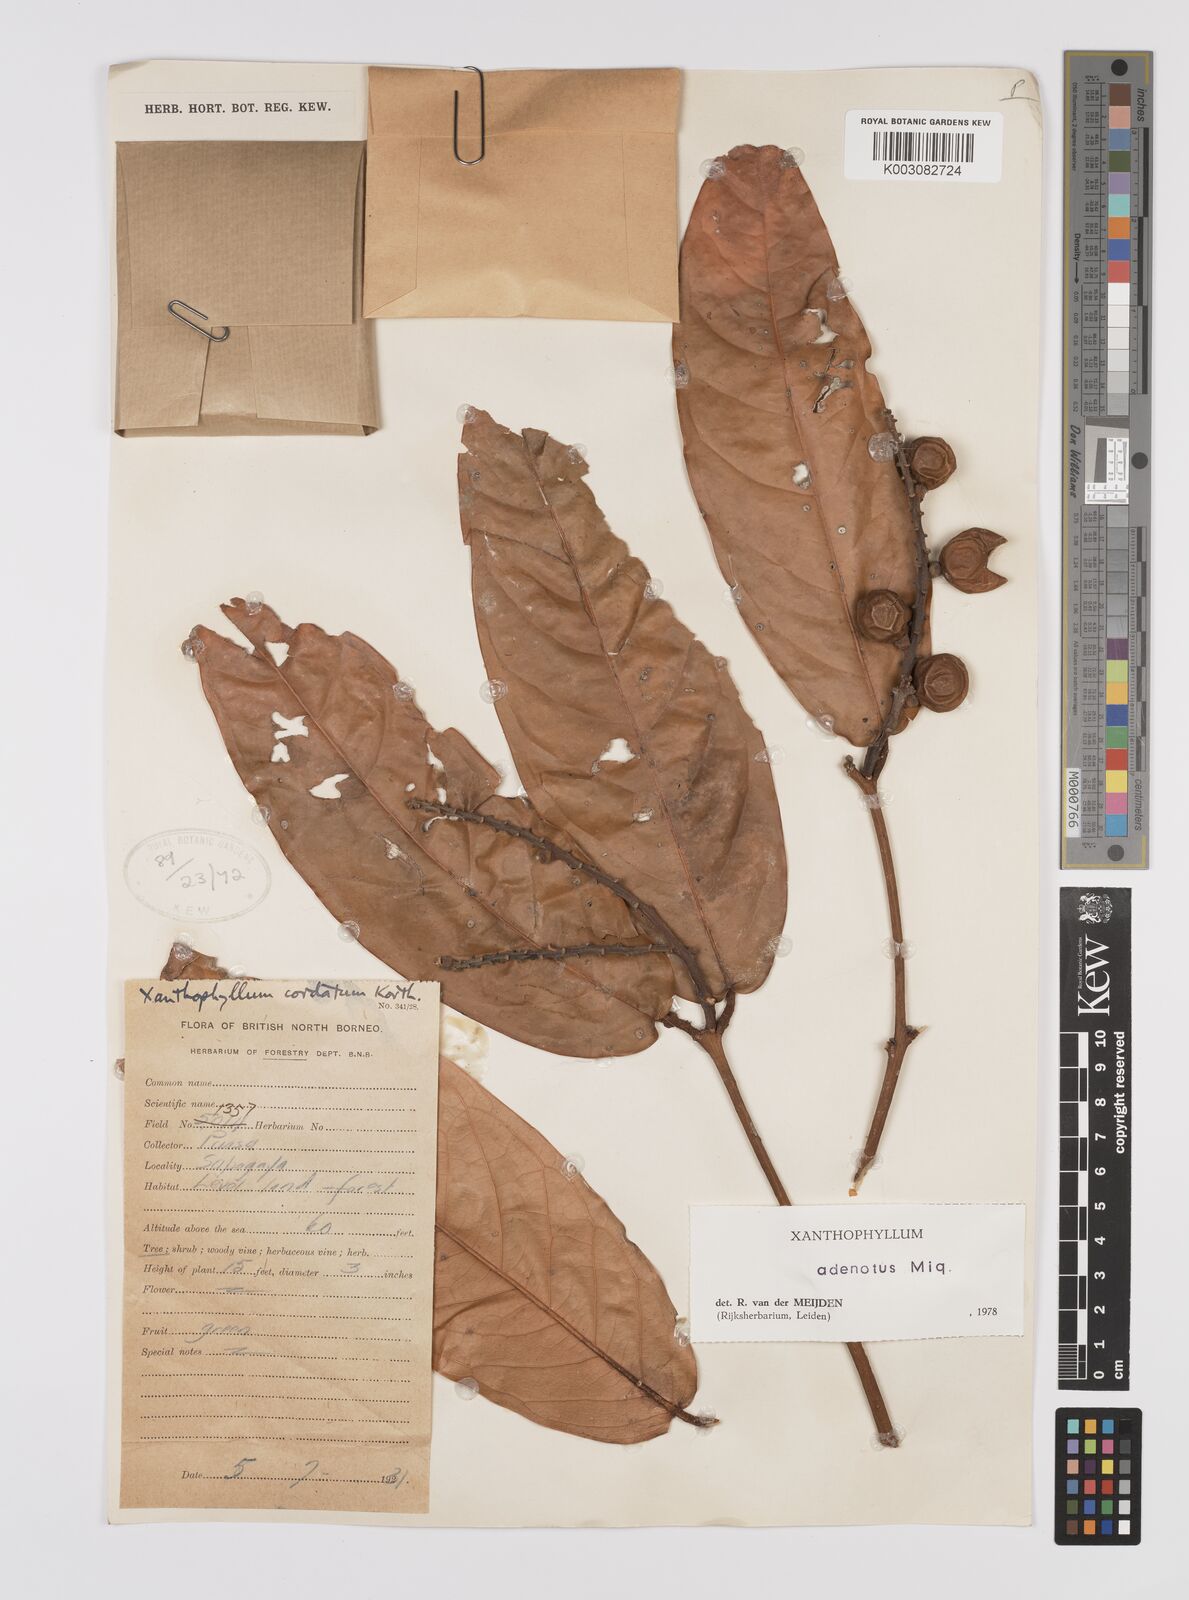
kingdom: Plantae
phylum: Tracheophyta
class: Magnoliopsida
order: Fabales
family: Polygalaceae
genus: Xanthophyllum
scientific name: Xanthophyllum adenotus
